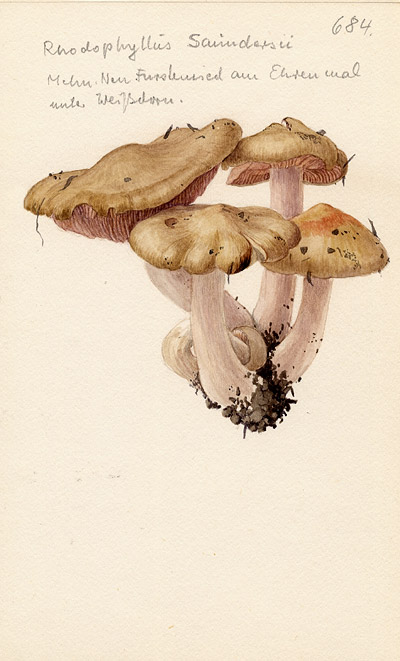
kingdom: Fungi
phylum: Basidiomycota
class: Agaricomycetes
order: Agaricales
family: Entolomataceae
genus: Entoloma
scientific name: Entoloma saundersii
